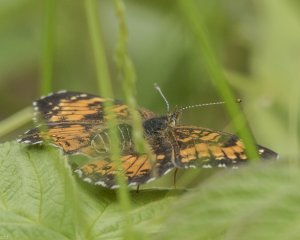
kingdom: Animalia
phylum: Arthropoda
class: Insecta
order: Lepidoptera
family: Nymphalidae
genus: Chlosyne
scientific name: Chlosyne harrisii
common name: Harris's Checkerspot
